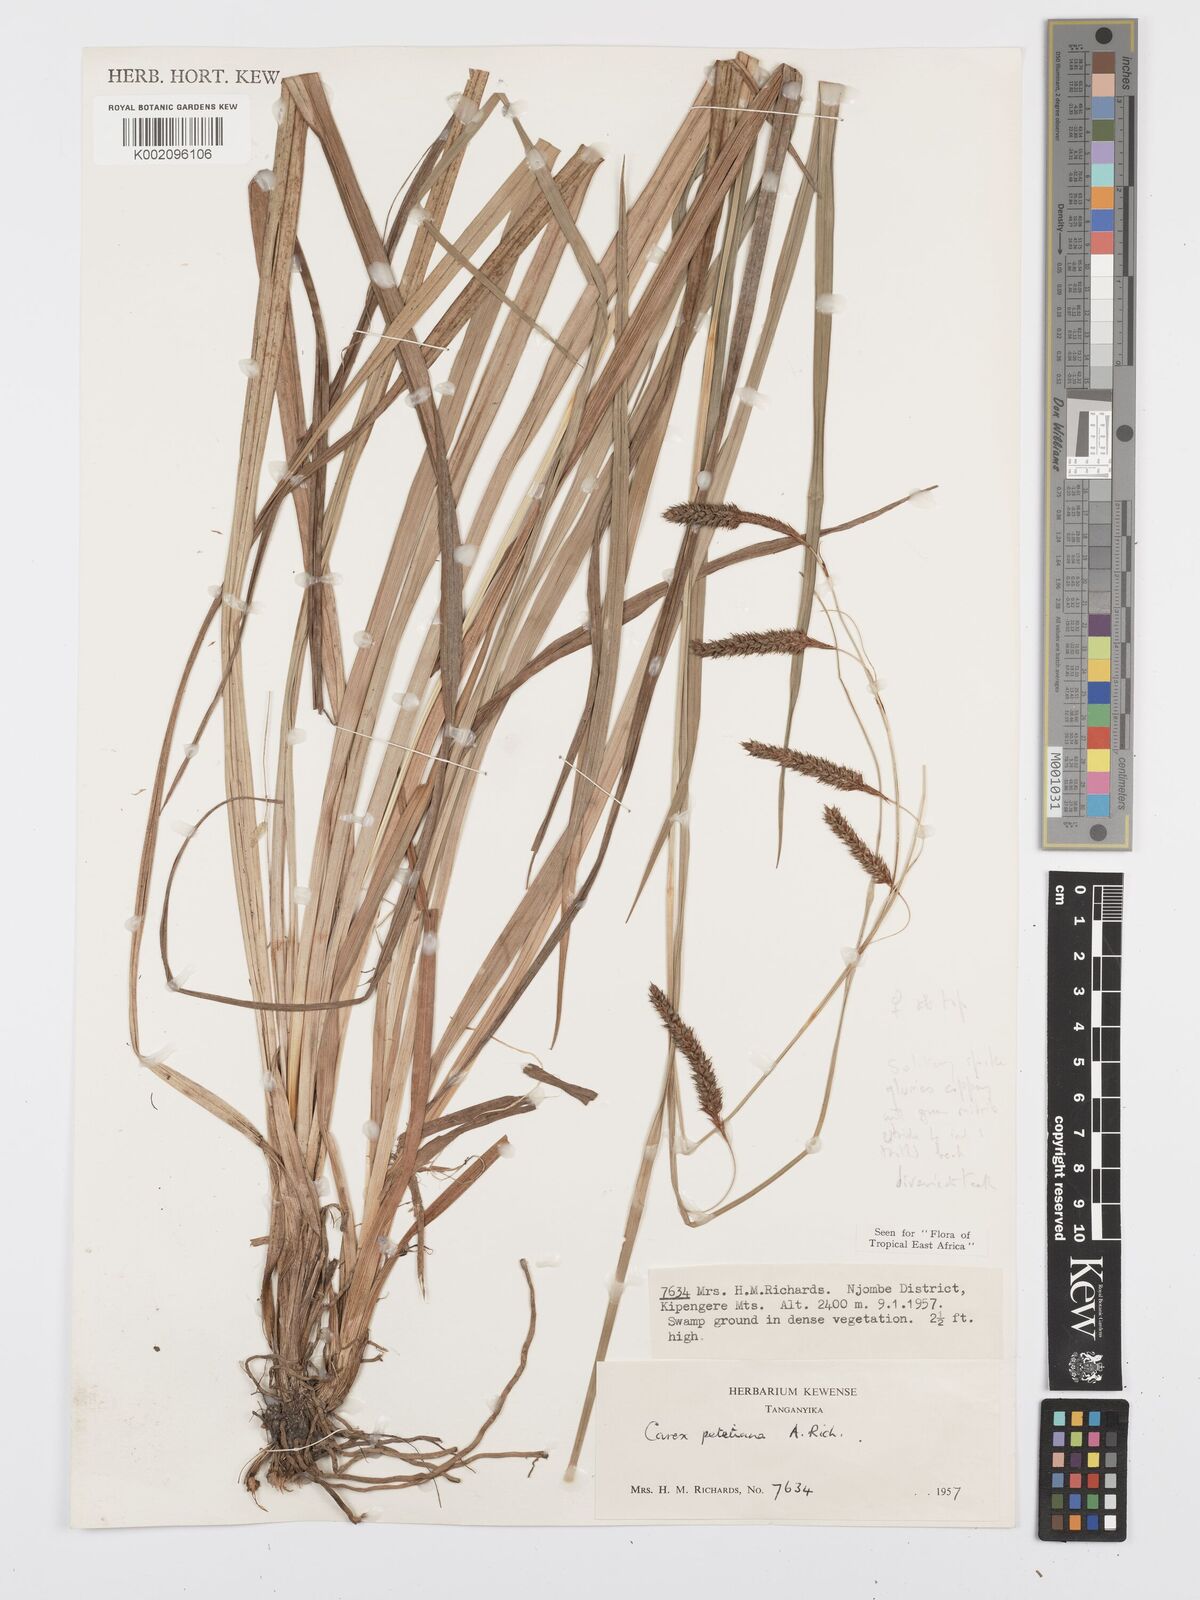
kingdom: Plantae
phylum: Tracheophyta
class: Liliopsida
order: Poales
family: Cyperaceae
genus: Carex
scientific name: Carex petitiana
